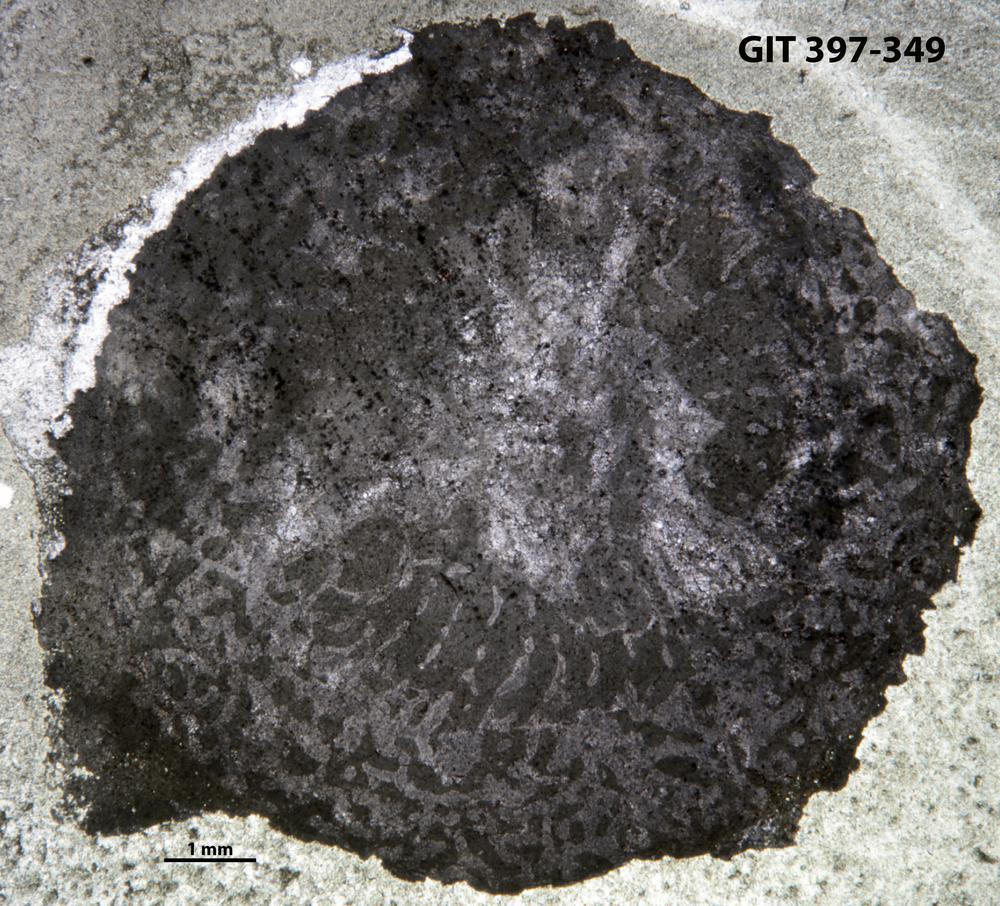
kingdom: Animalia
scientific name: Animalia
